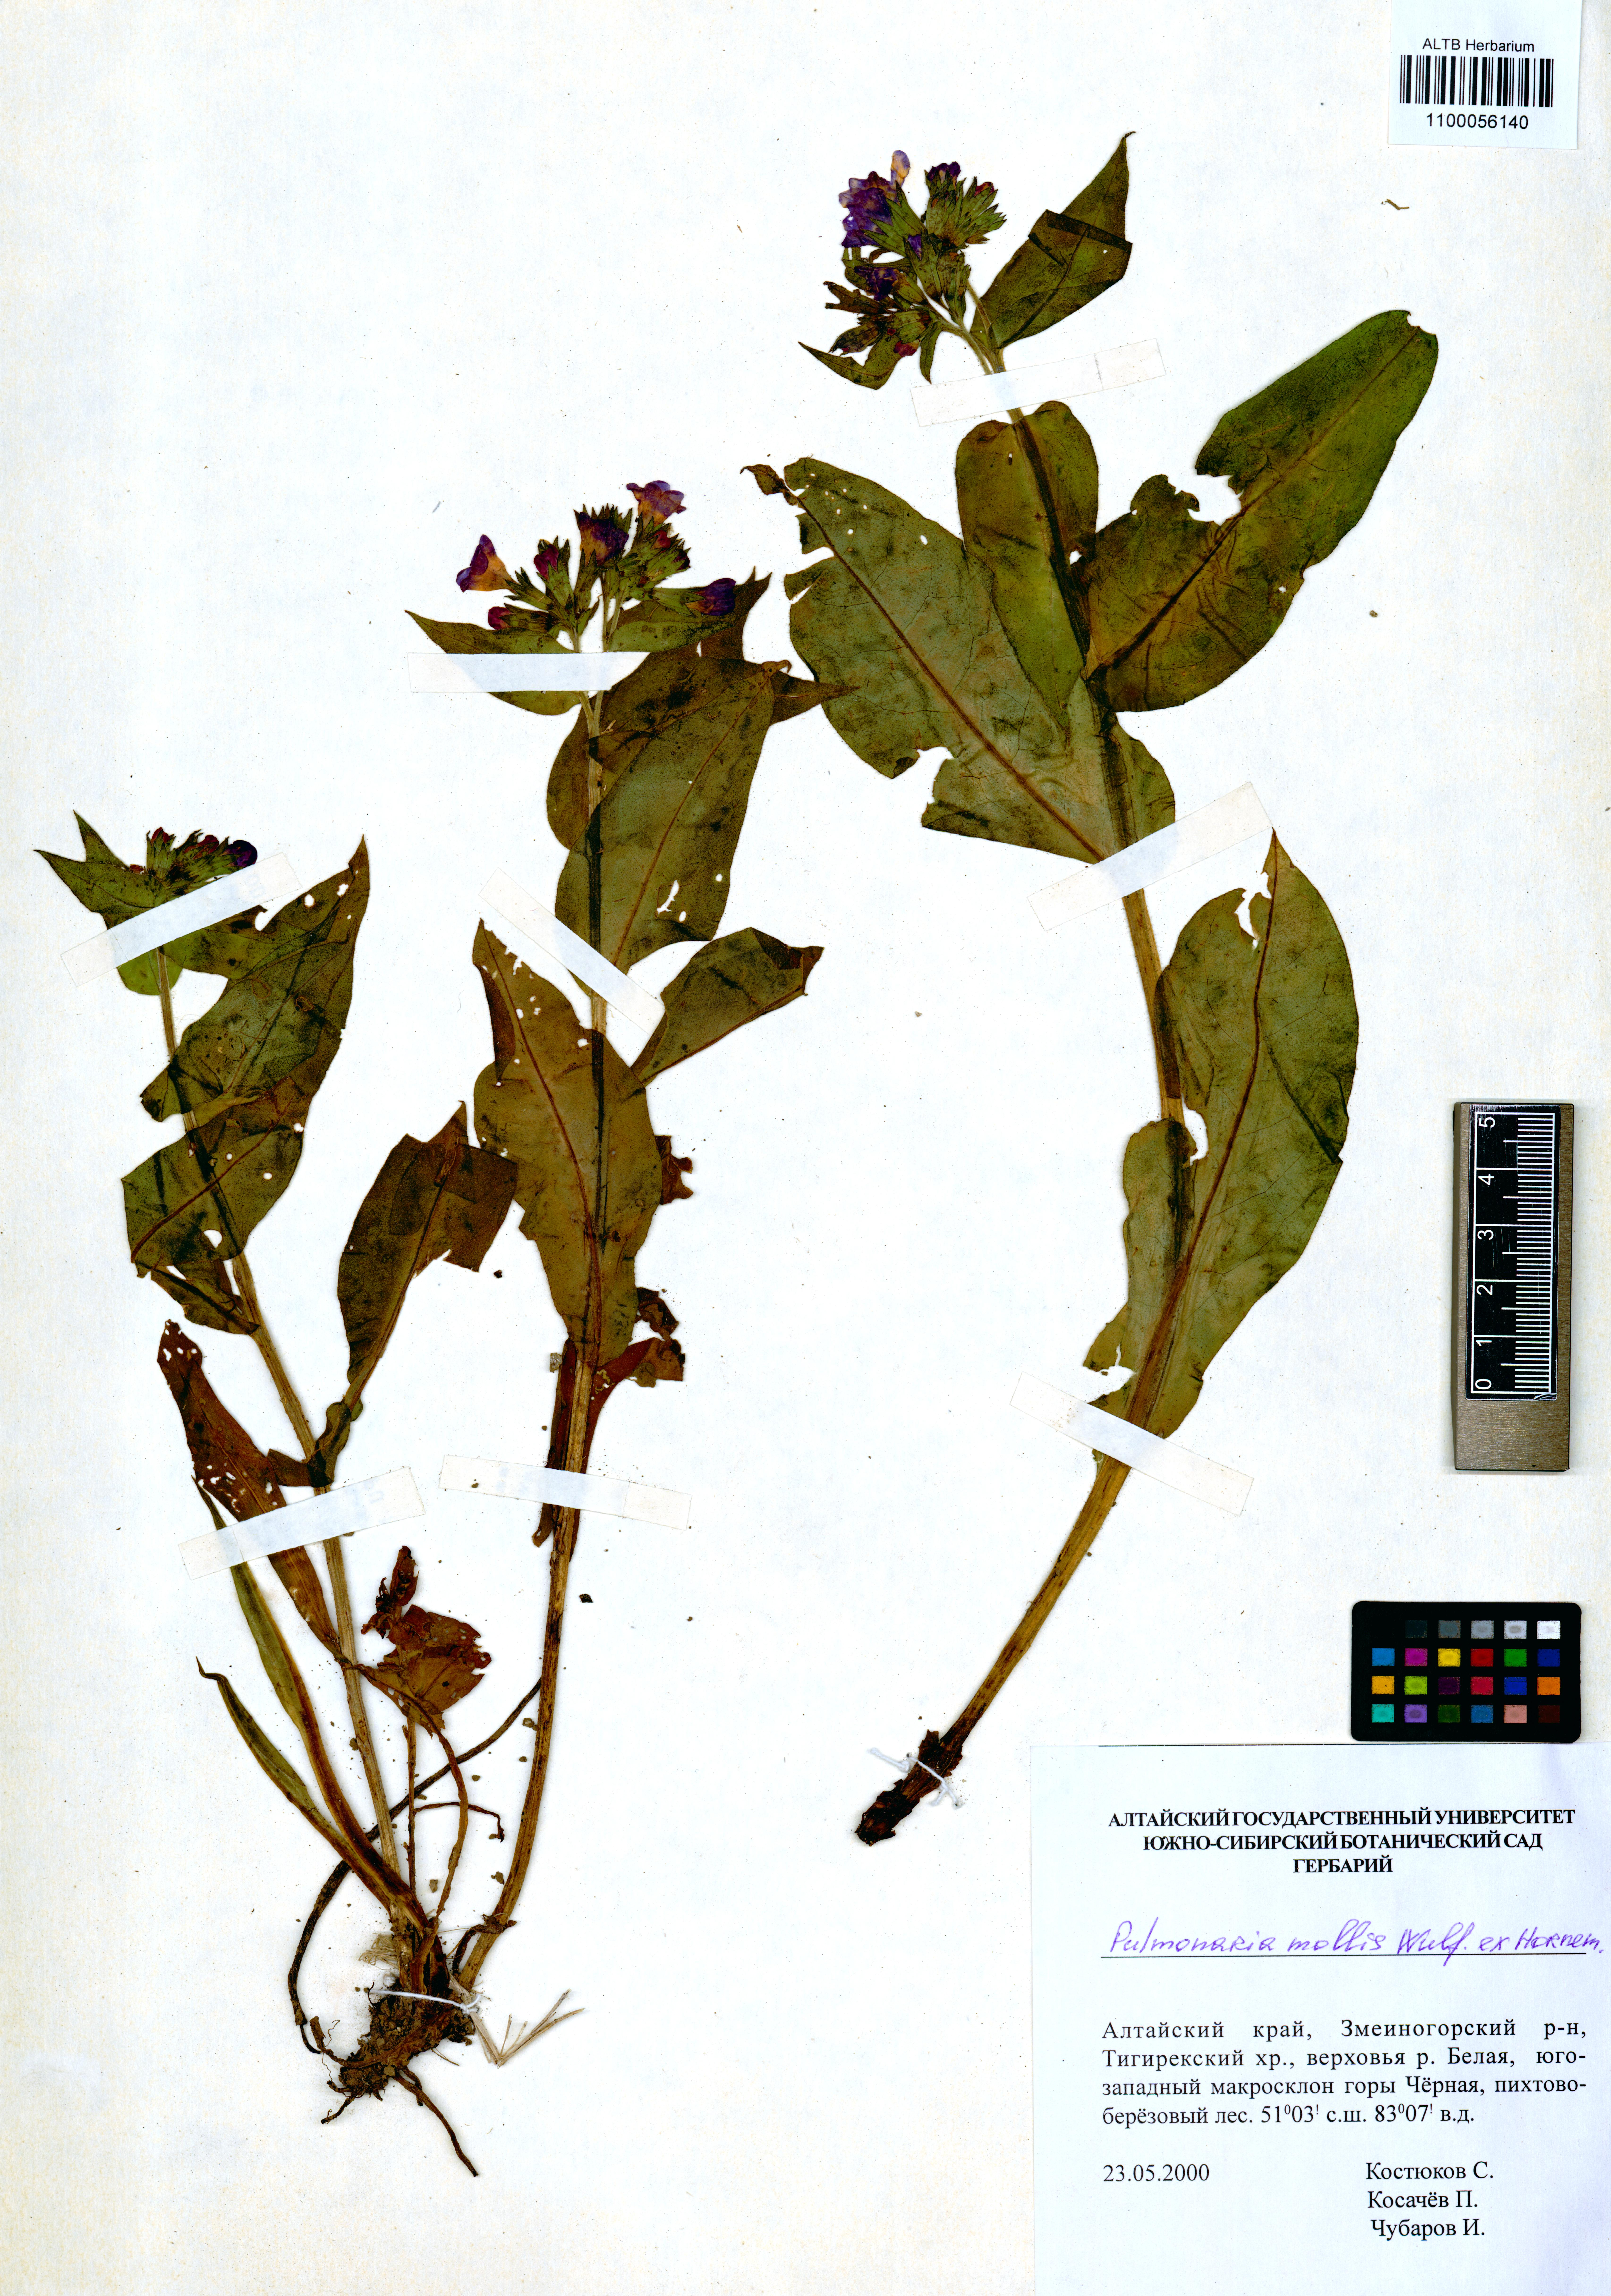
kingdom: Plantae
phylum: Tracheophyta
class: Magnoliopsida
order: Boraginales
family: Boraginaceae
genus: Pulmonaria
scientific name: Pulmonaria mollis
